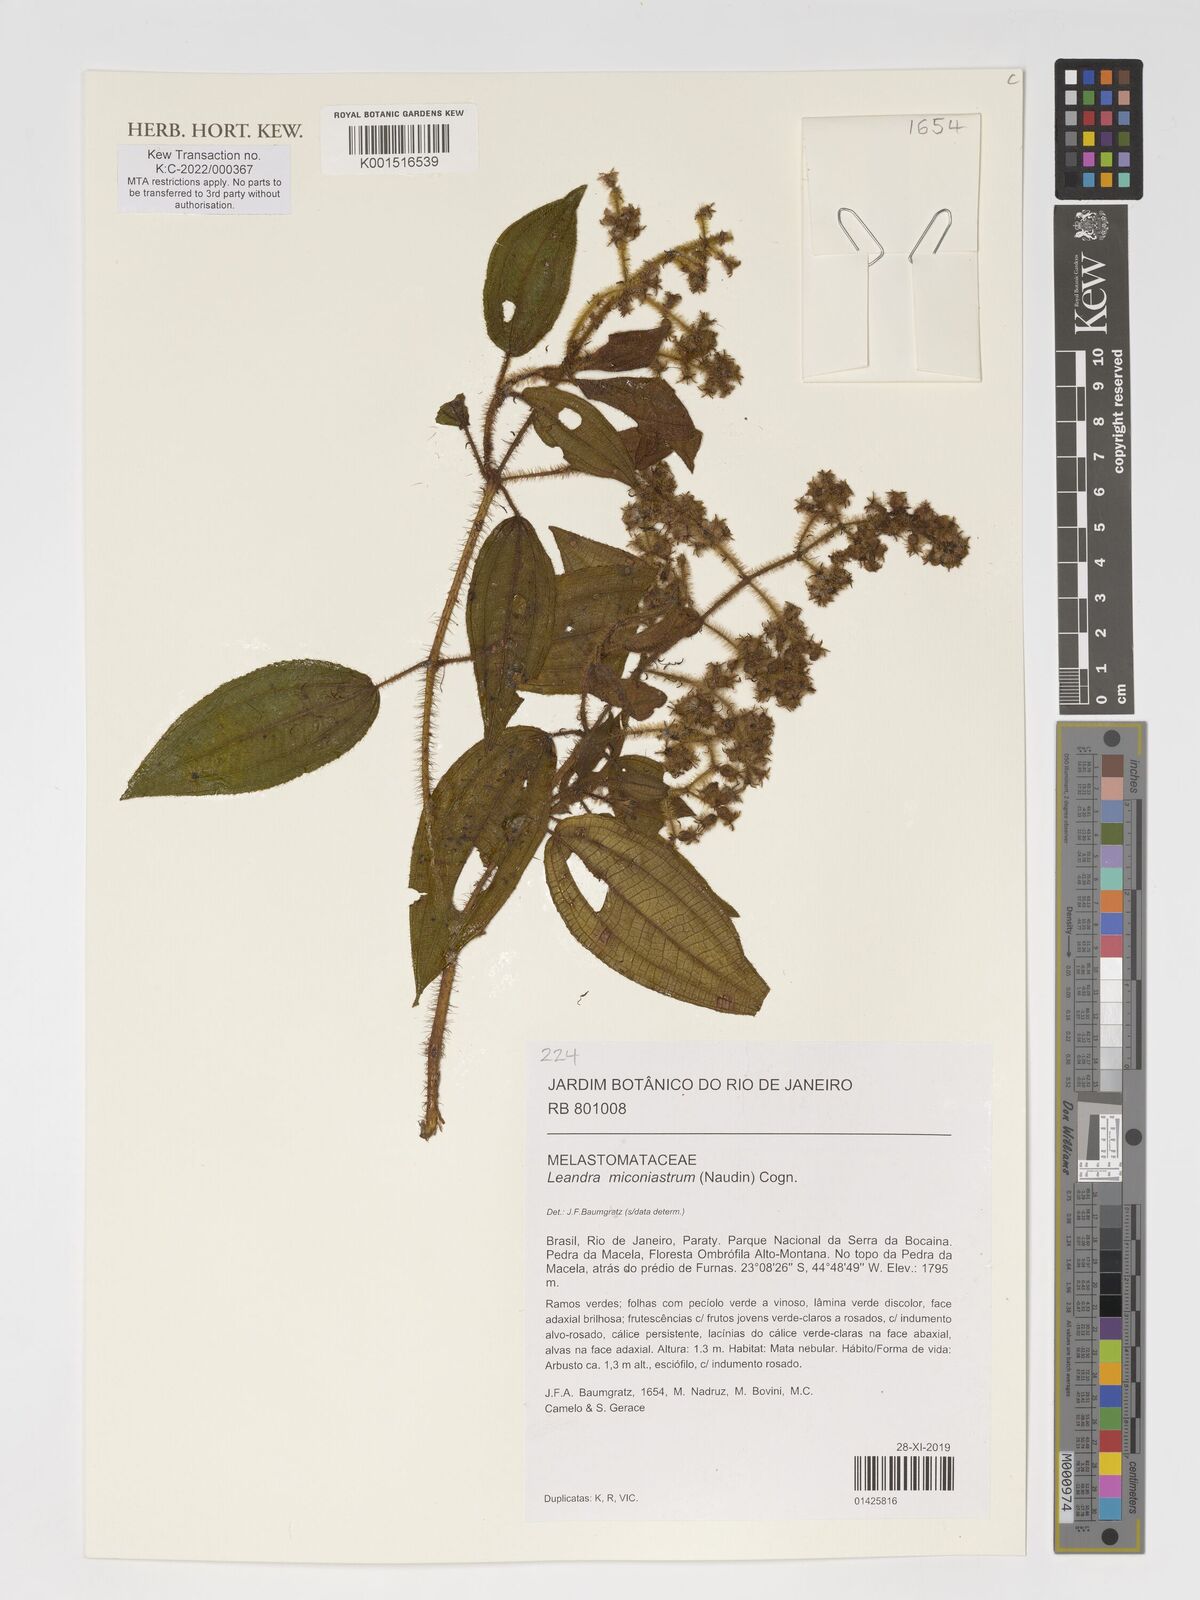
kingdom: Plantae
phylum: Tracheophyta
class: Magnoliopsida
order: Myrtales
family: Melastomataceae
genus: Miconia
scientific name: Miconia miconiastrum
